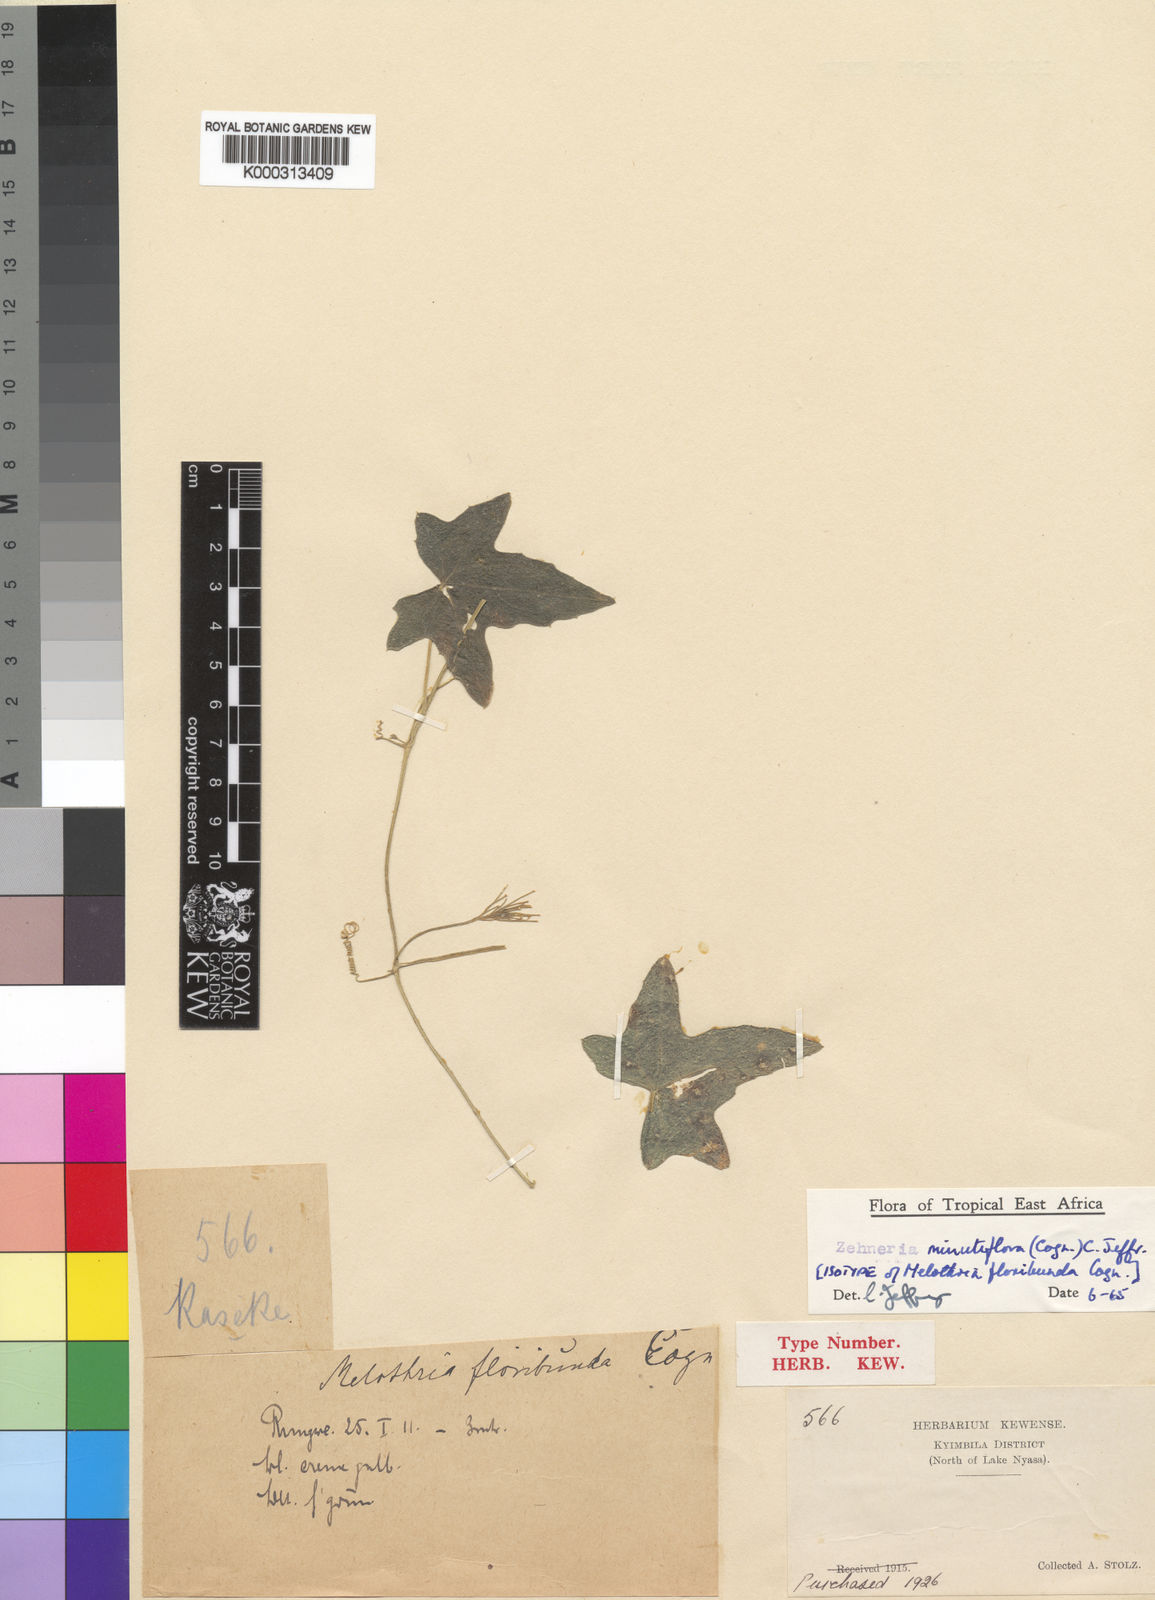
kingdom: Plantae
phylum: Tracheophyta
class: Magnoliopsida
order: Cucurbitales
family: Cucurbitaceae
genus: Zehneria
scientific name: Zehneria minutiflora
